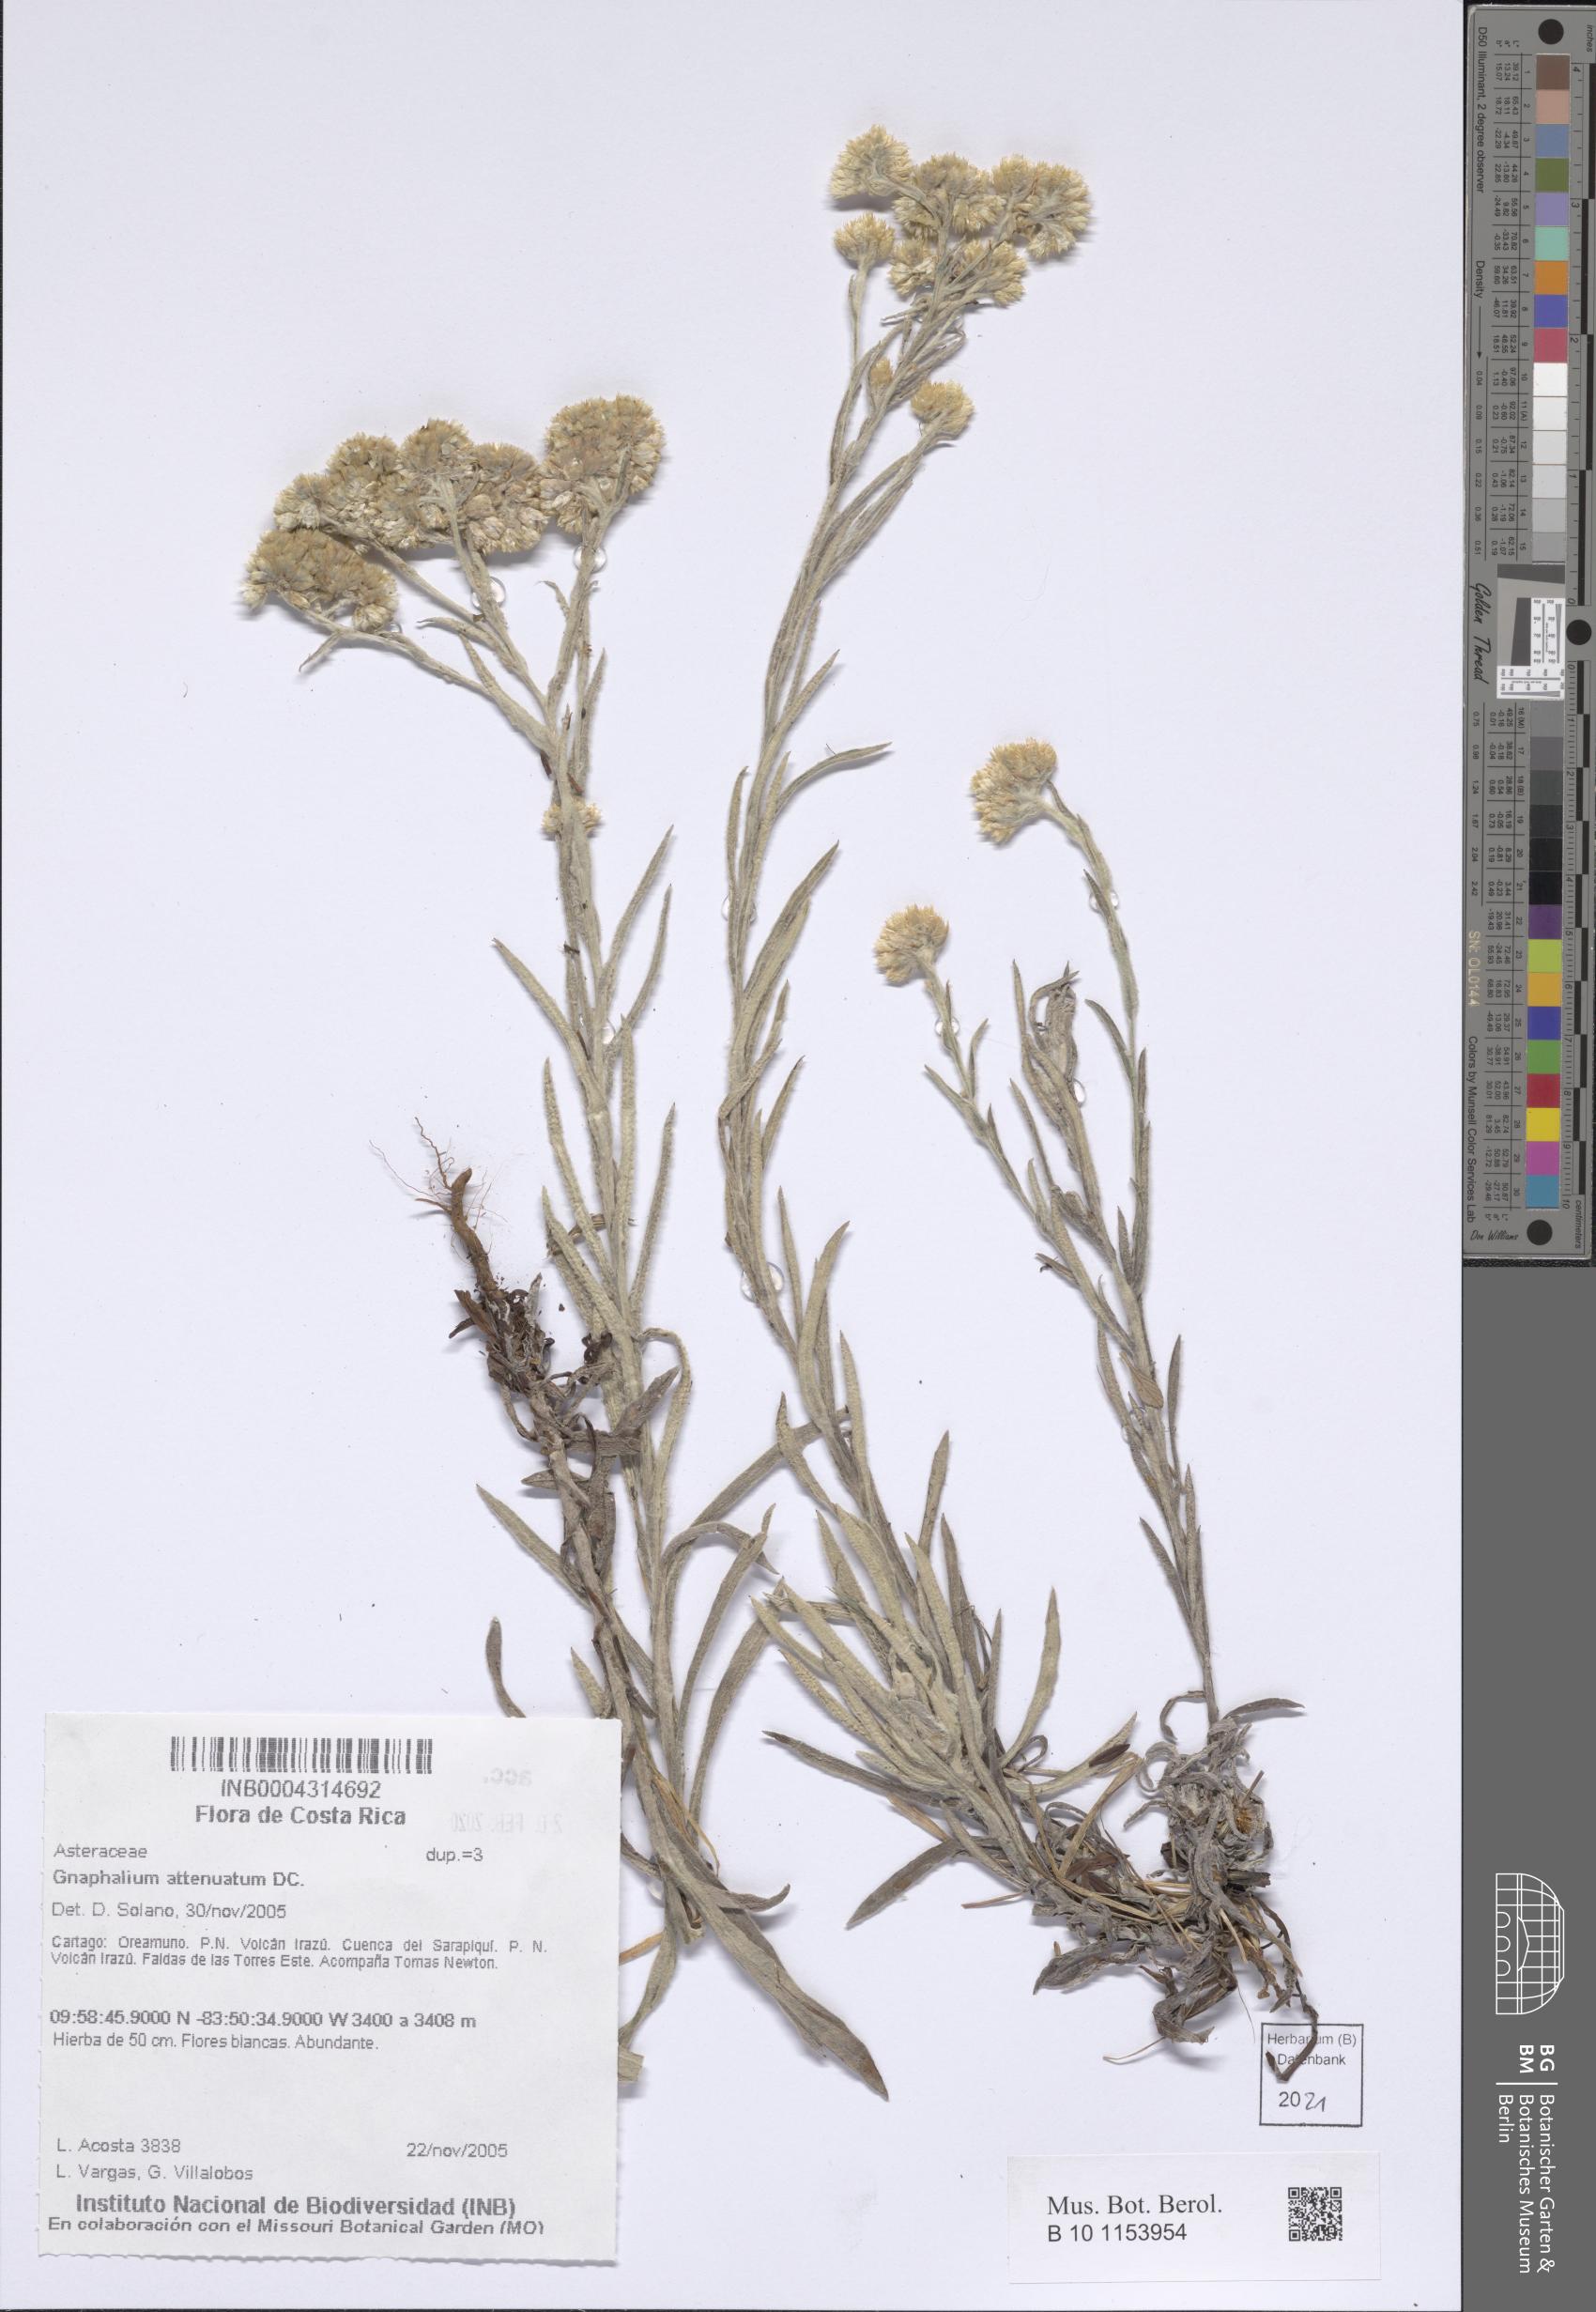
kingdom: Plantae
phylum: Tracheophyta
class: Magnoliopsida
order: Asterales
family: Asteraceae
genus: Pseudognaphalium
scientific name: Pseudognaphalium attenuatum
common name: Tapered cudweed
